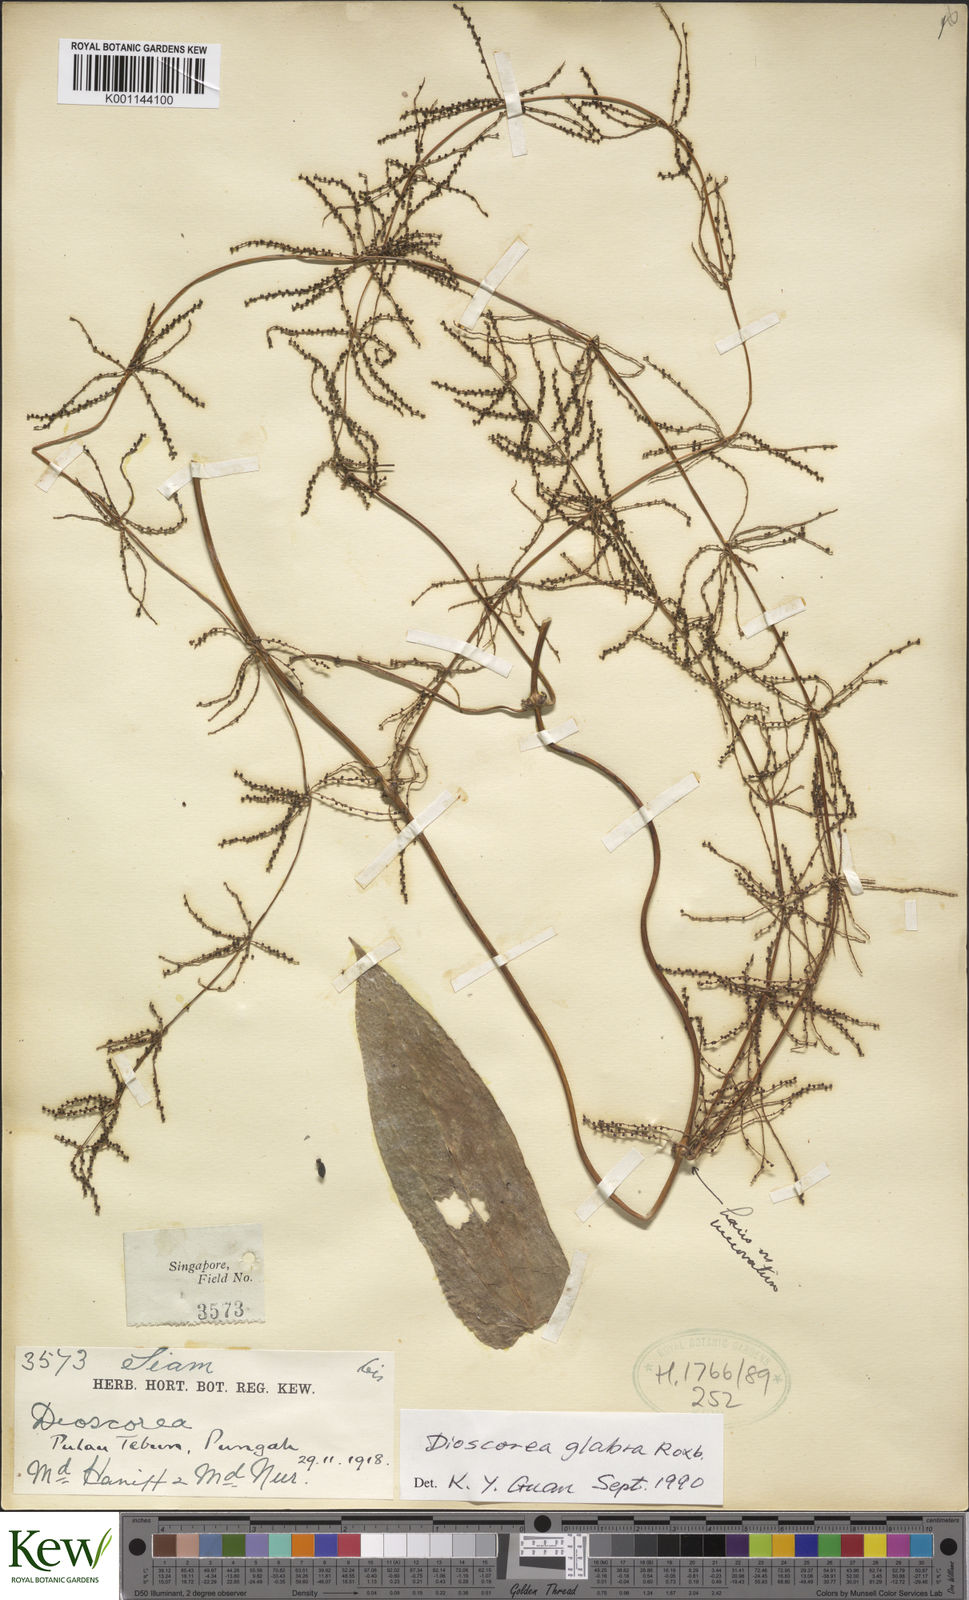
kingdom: Plantae
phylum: Tracheophyta
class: Liliopsida
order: Dioscoreales
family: Dioscoreaceae
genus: Dioscorea
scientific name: Dioscorea glabra
